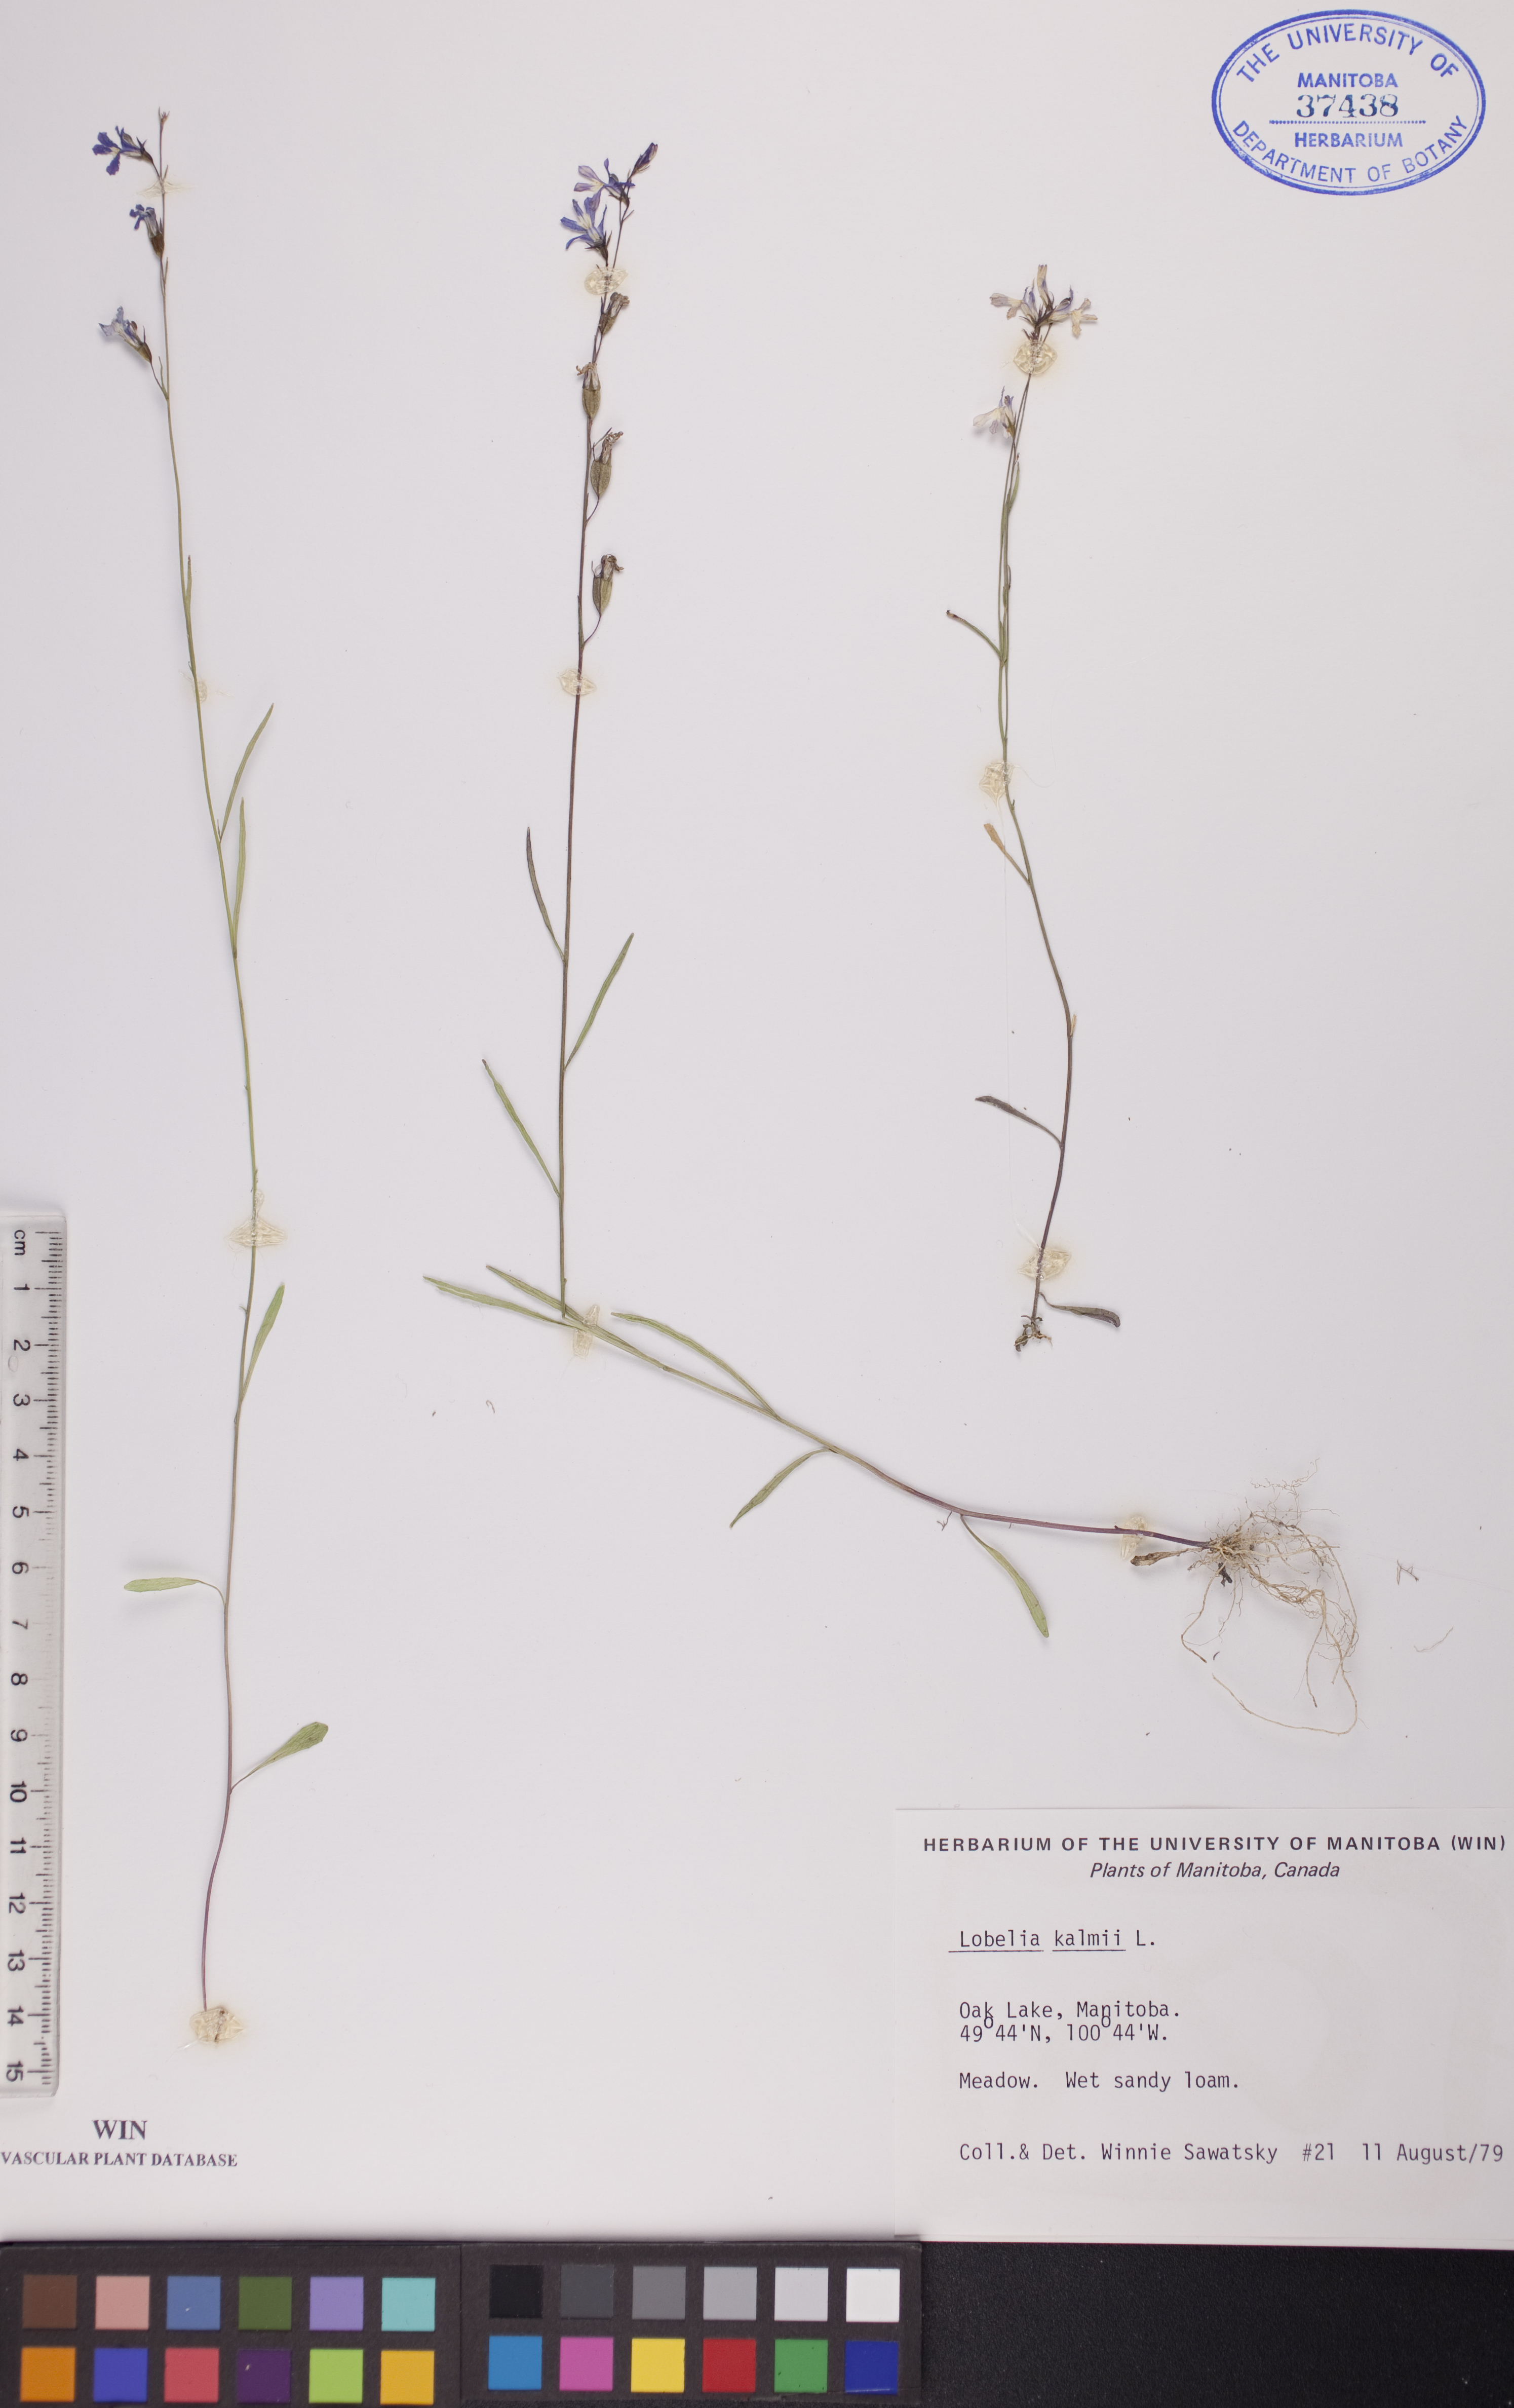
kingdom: Plantae
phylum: Tracheophyta
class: Magnoliopsida
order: Asterales
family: Campanulaceae
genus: Lobelia
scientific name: Lobelia kalmii
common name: Kalm's lobelia
